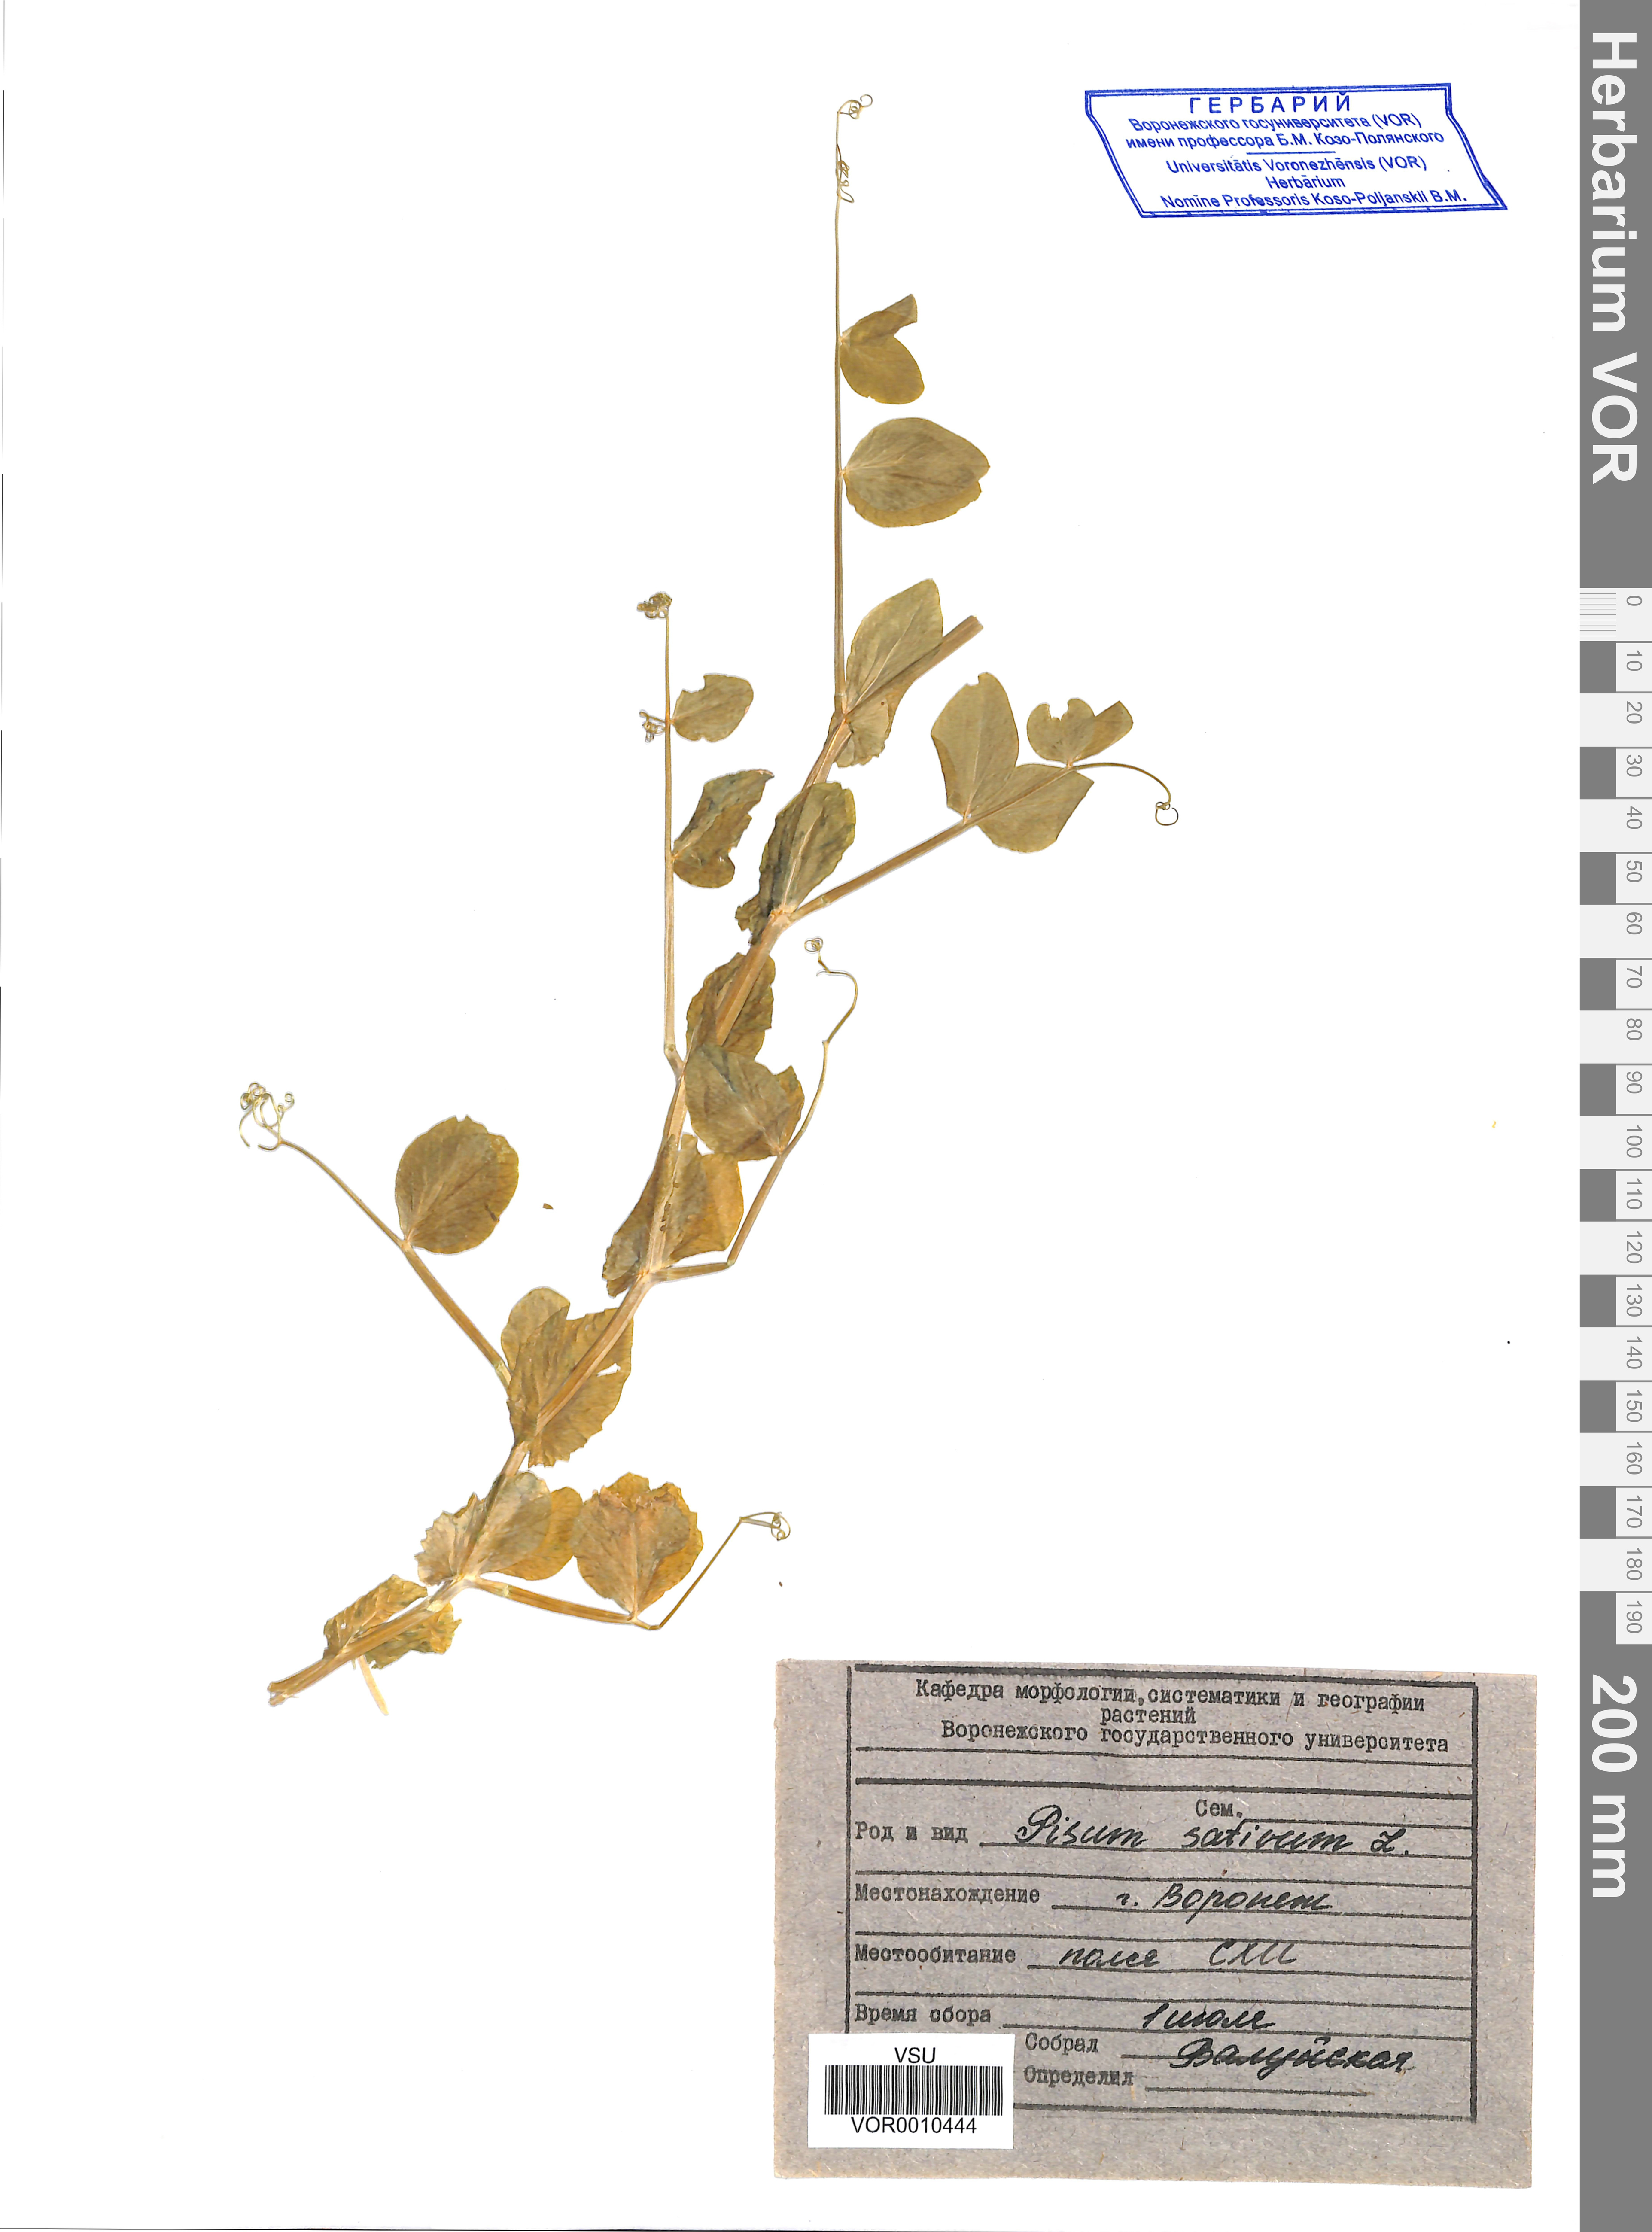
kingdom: Plantae
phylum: Tracheophyta
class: Magnoliopsida
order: Fabales
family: Fabaceae
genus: Lathyrus
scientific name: Lathyrus oleraceus
